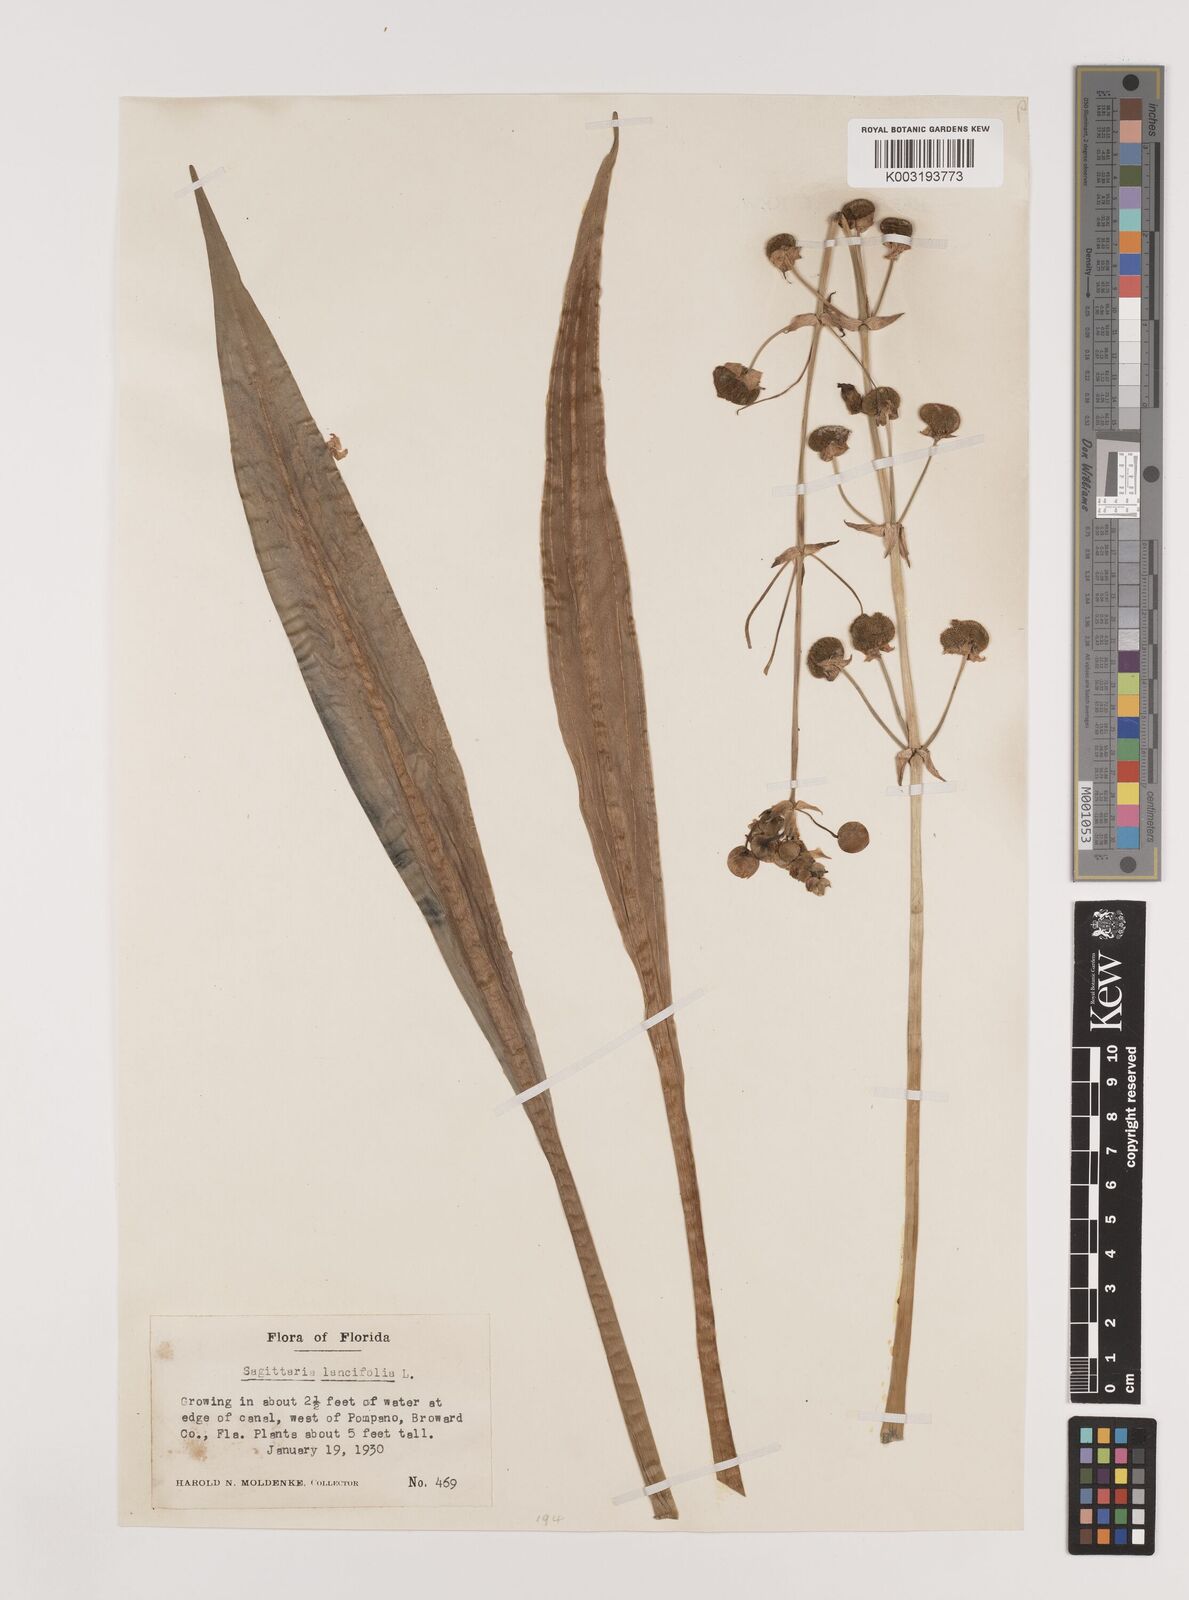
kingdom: Plantae
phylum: Tracheophyta
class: Liliopsida
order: Alismatales
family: Alismataceae
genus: Sagittaria
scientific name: Sagittaria lancifolia
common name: Lance-leaf arrowhead
